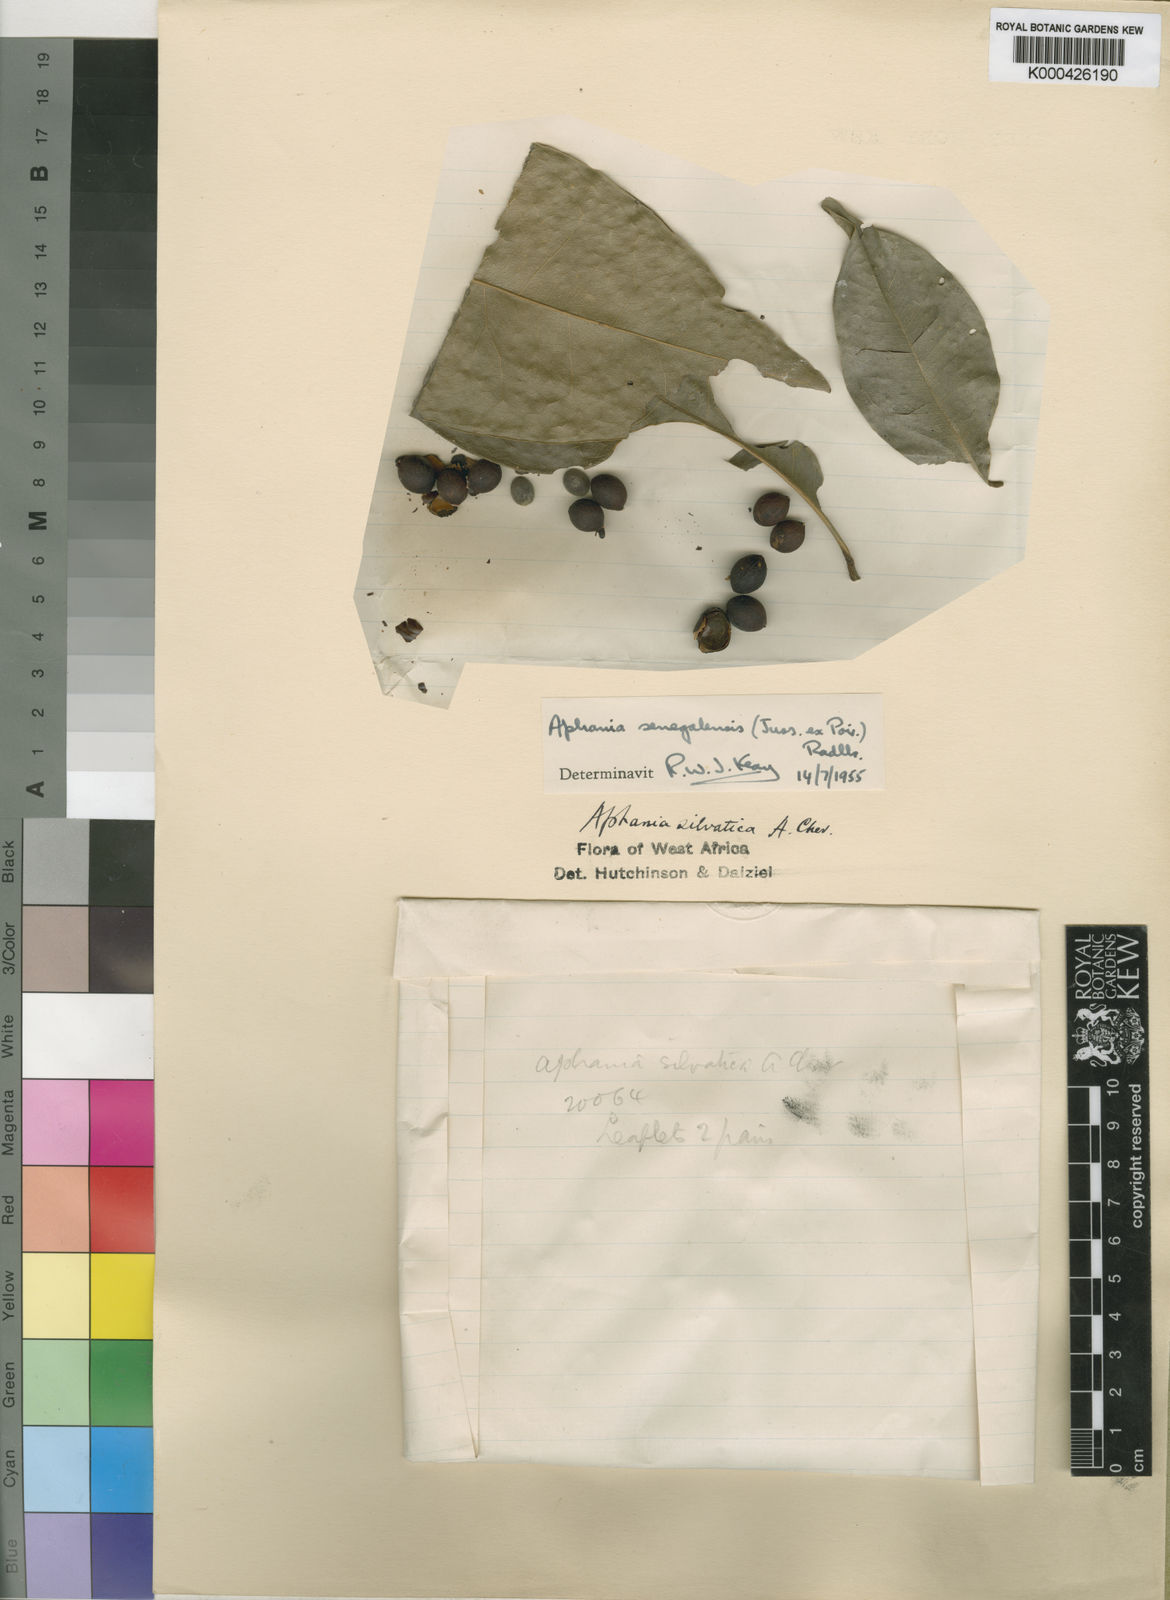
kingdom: Plantae
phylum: Tracheophyta
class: Magnoliopsida
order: Sapindales
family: Sapindaceae
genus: Lepisanthes
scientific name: Lepisanthes senegalensis
